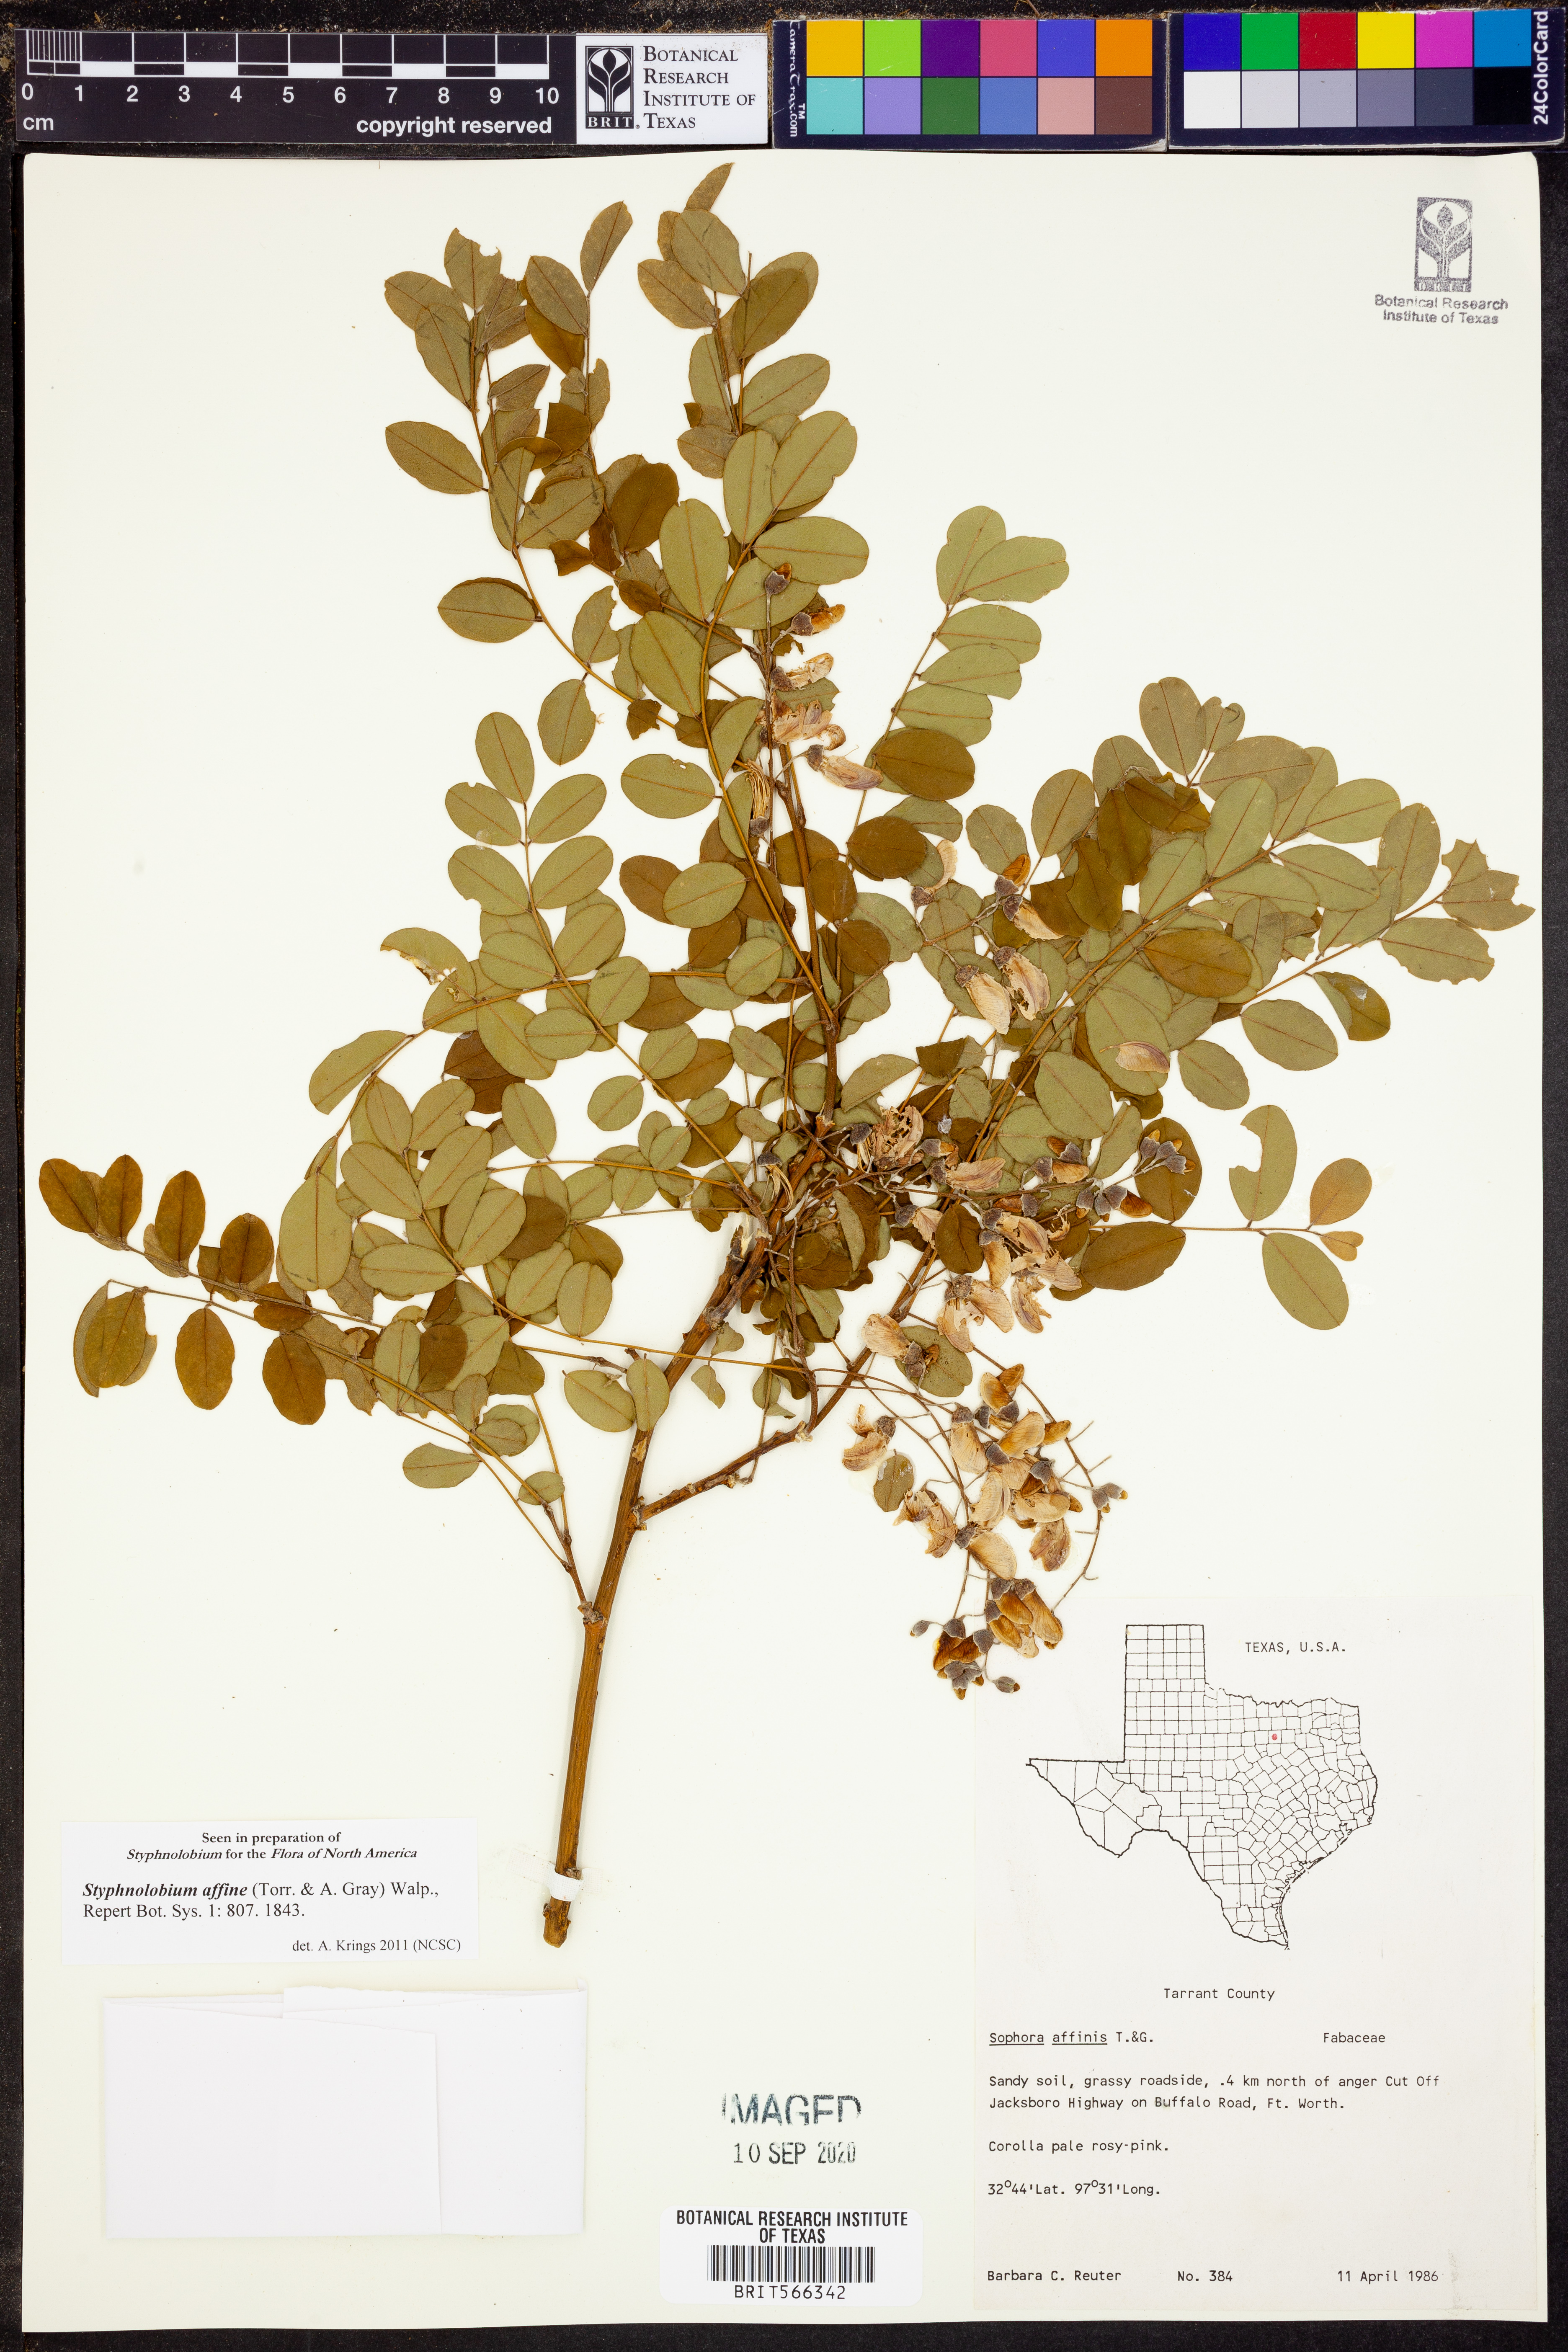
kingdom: Plantae
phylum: Tracheophyta
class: Magnoliopsida
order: Fabales
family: Fabaceae
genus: Styphnolobium
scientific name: Styphnolobium affine
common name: Texas sophora
